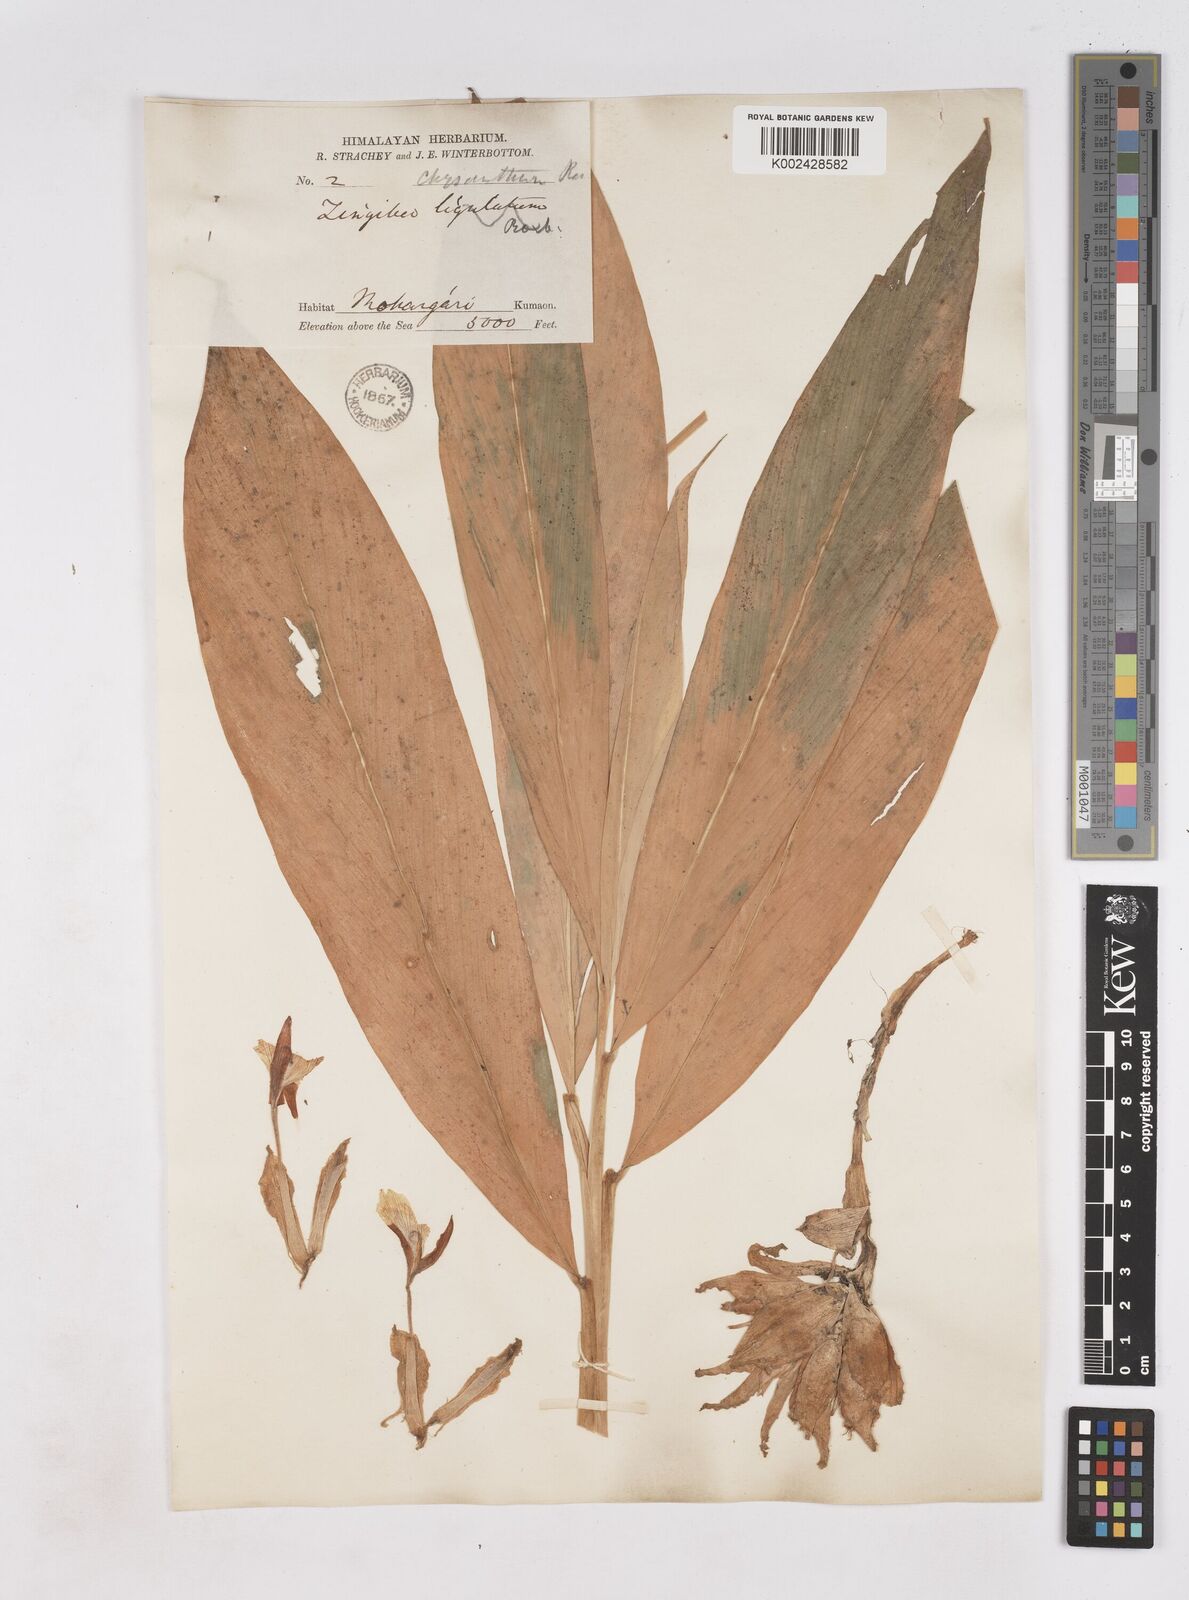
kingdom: Plantae
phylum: Tracheophyta
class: Liliopsida
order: Zingiberales
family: Zingiberaceae
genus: Zingiber
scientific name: Zingiber chrysanthum
